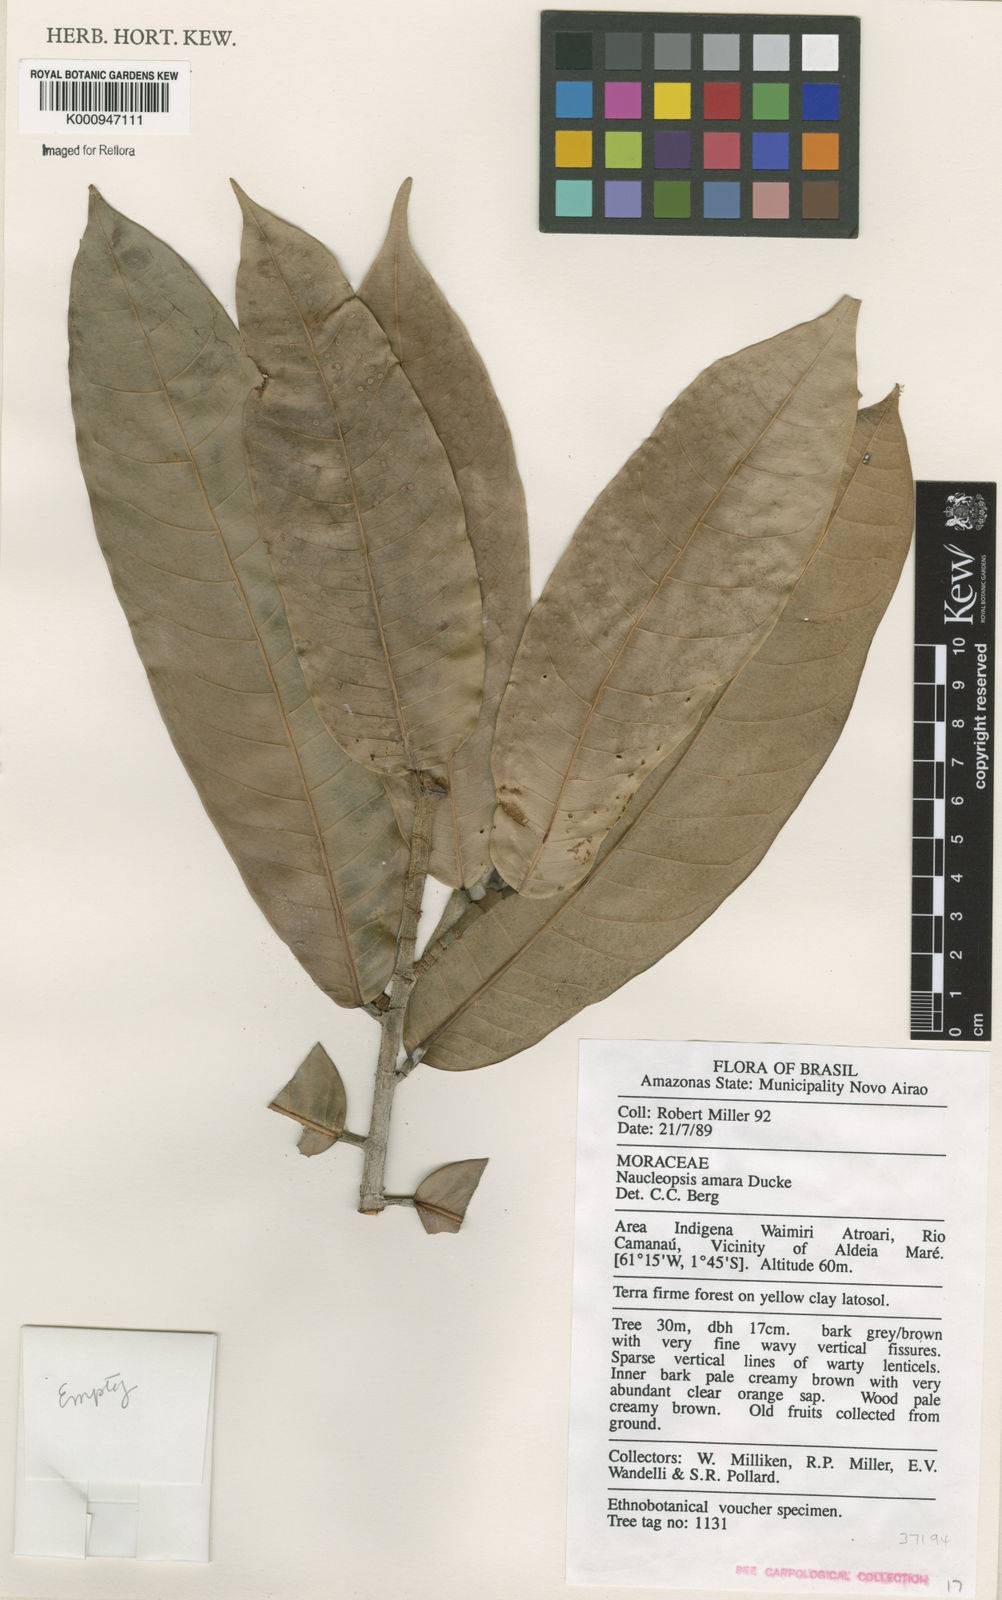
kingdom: Plantae
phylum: Tracheophyta
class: Magnoliopsida
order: Rosales
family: Moraceae
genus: Naucleopsis
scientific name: Naucleopsis ulei
